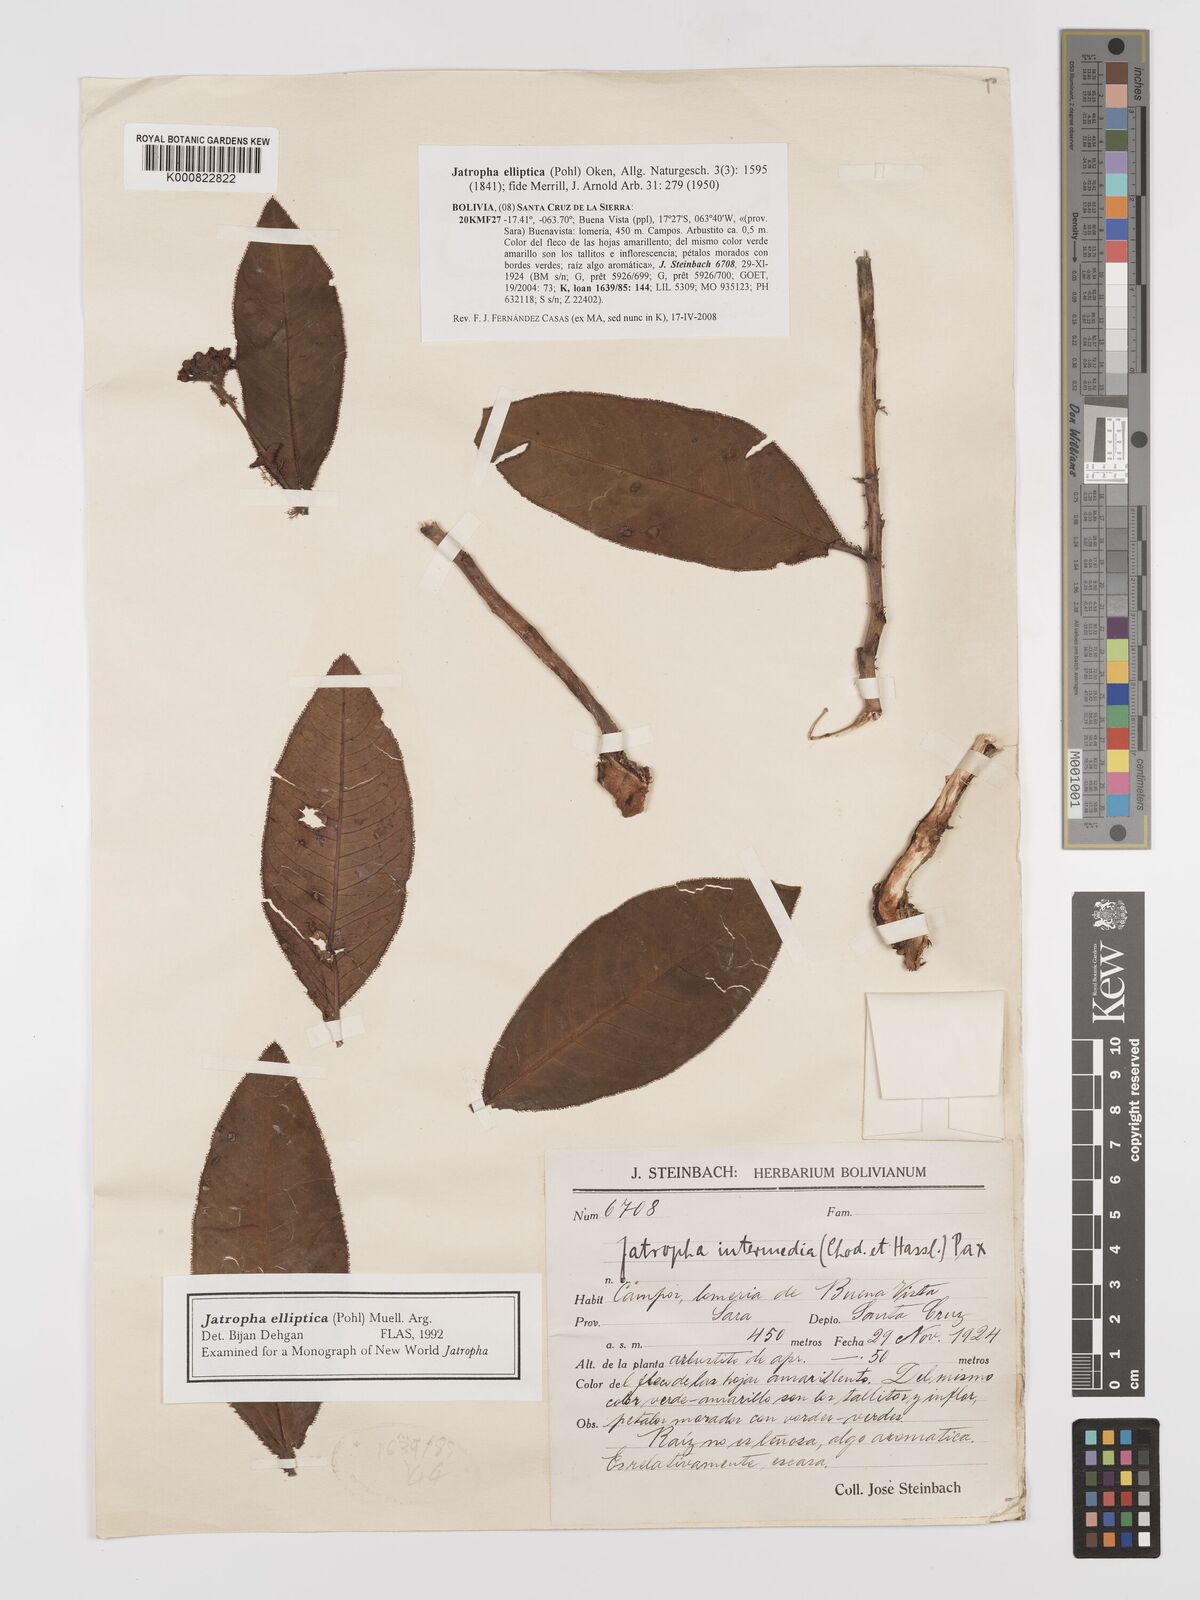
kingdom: Plantae
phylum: Tracheophyta
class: Magnoliopsida
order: Malpighiales
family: Euphorbiaceae
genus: Jatropha
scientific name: Jatropha elliptica
